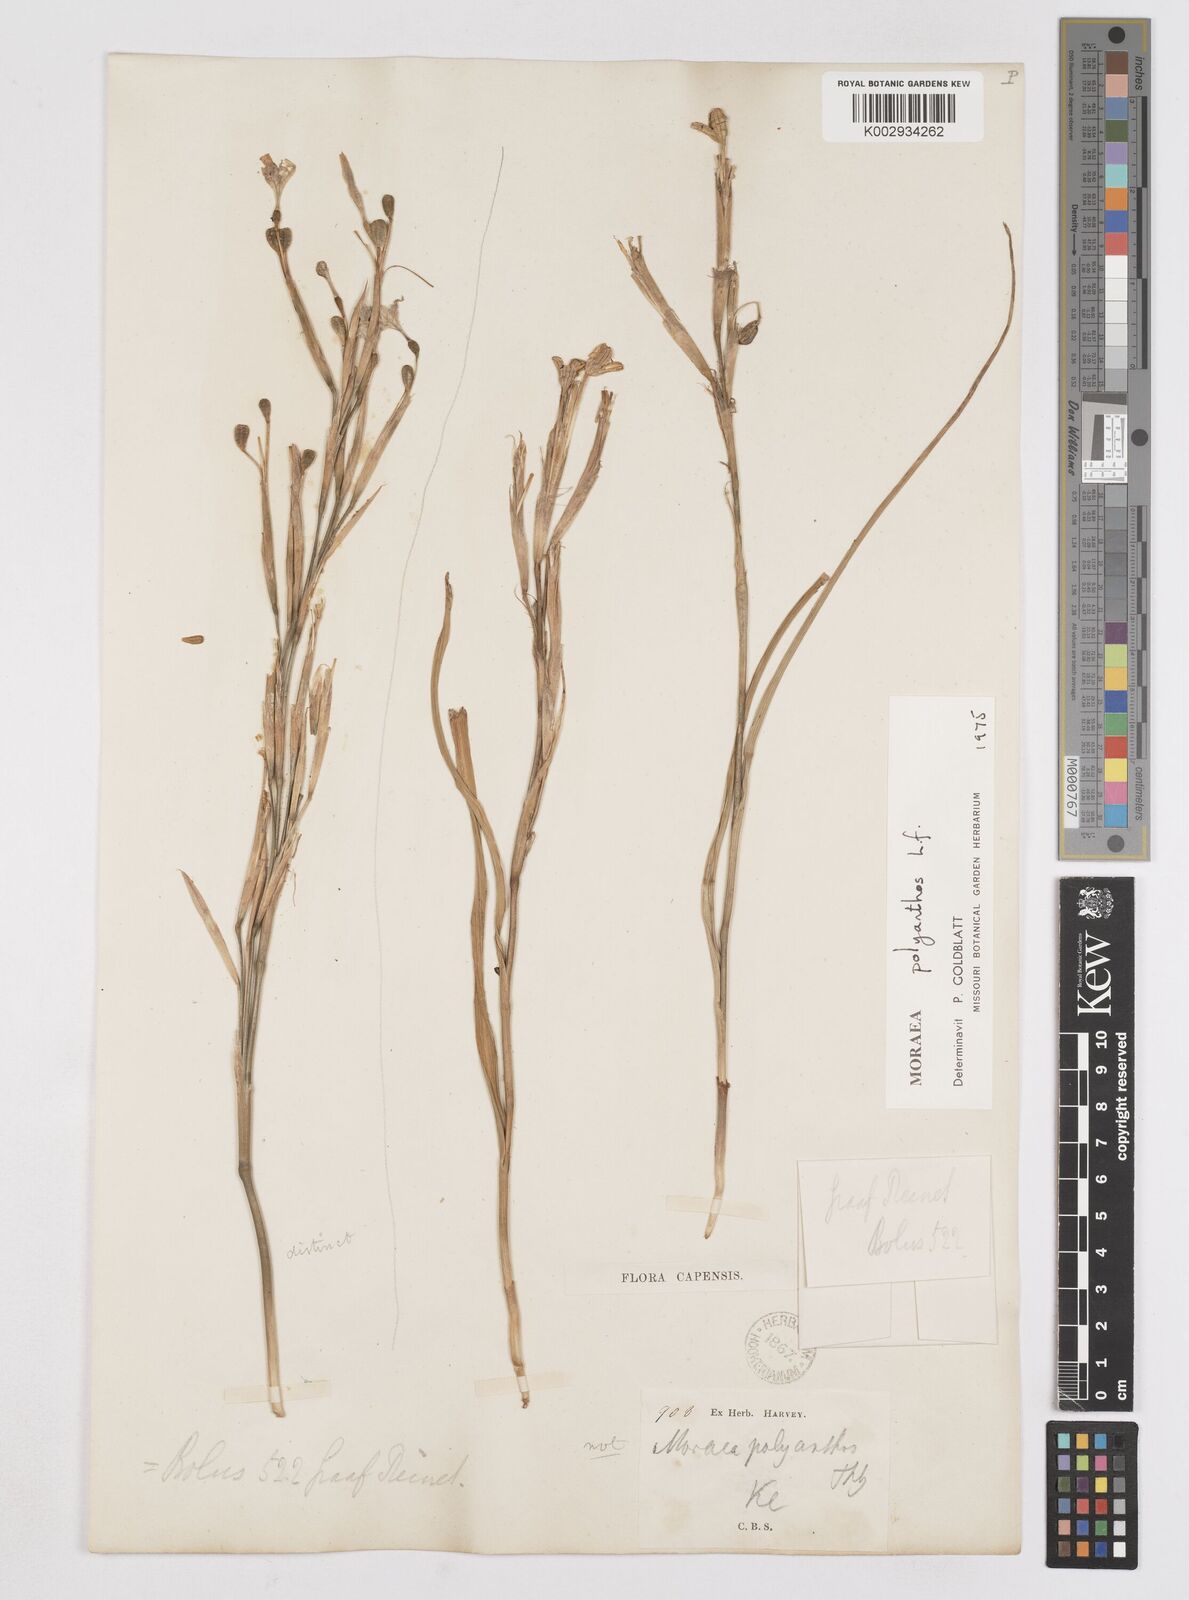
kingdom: Plantae
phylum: Tracheophyta
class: Liliopsida
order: Asparagales
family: Iridaceae
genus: Moraea
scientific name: Moraea bipartita
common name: Blue tulp
